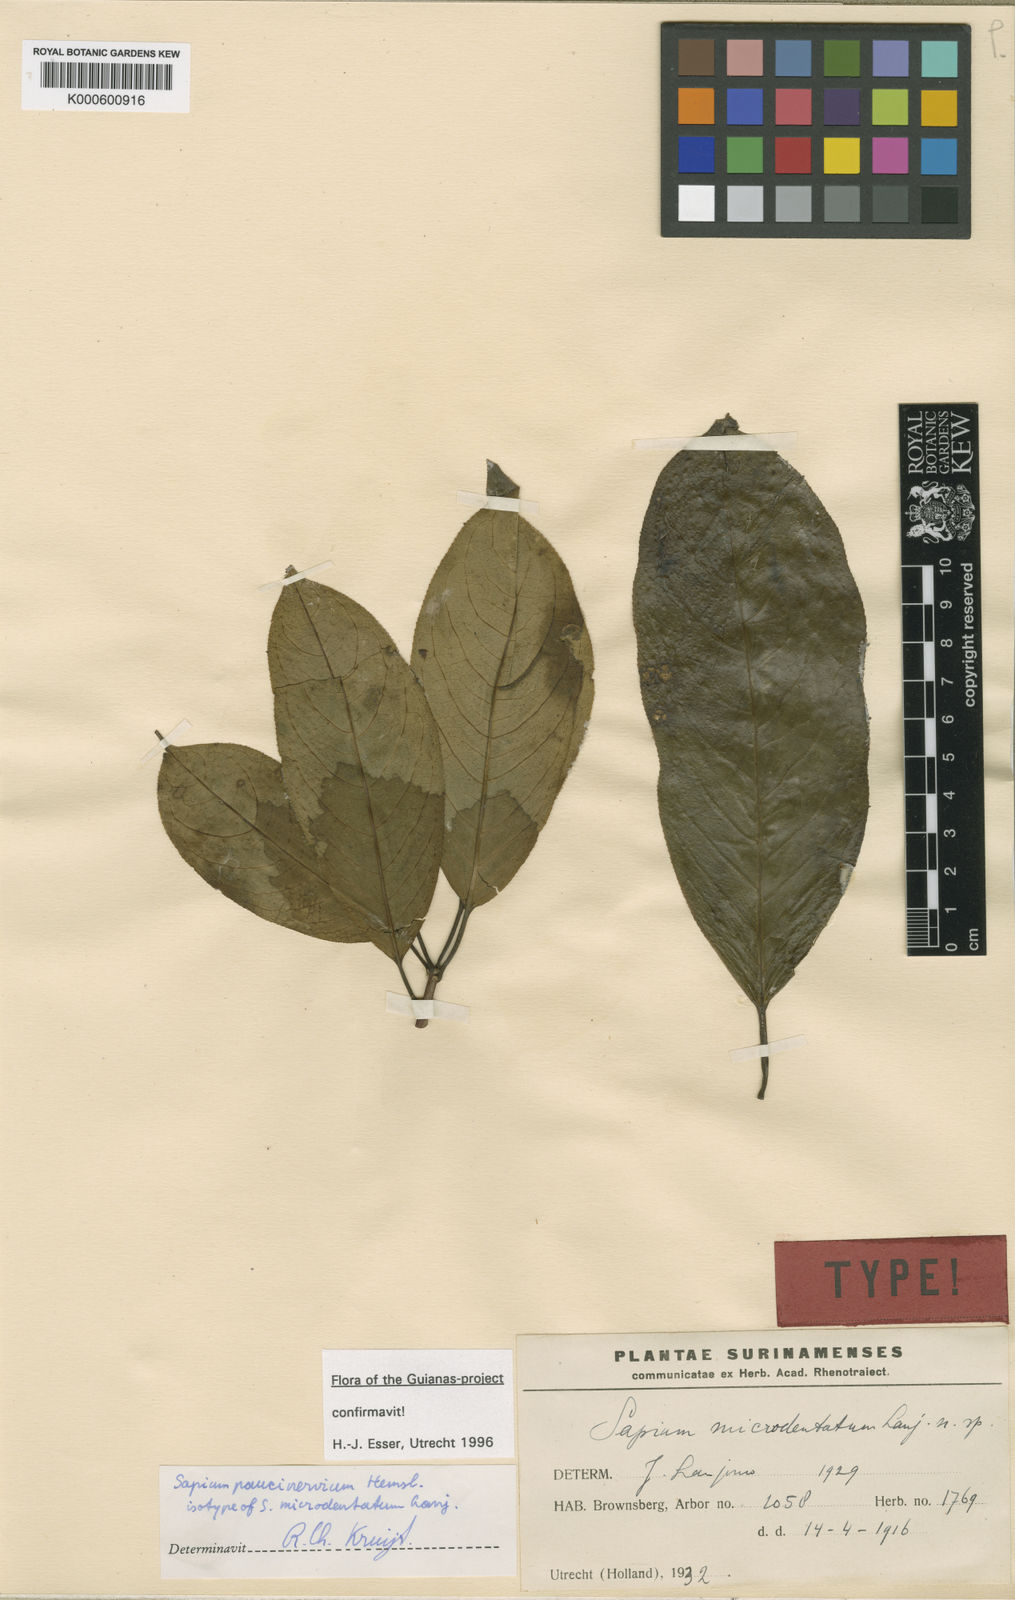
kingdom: Plantae
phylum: Tracheophyta
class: Magnoliopsida
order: Malpighiales
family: Euphorbiaceae
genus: Sapium
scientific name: Sapium paucinervium
